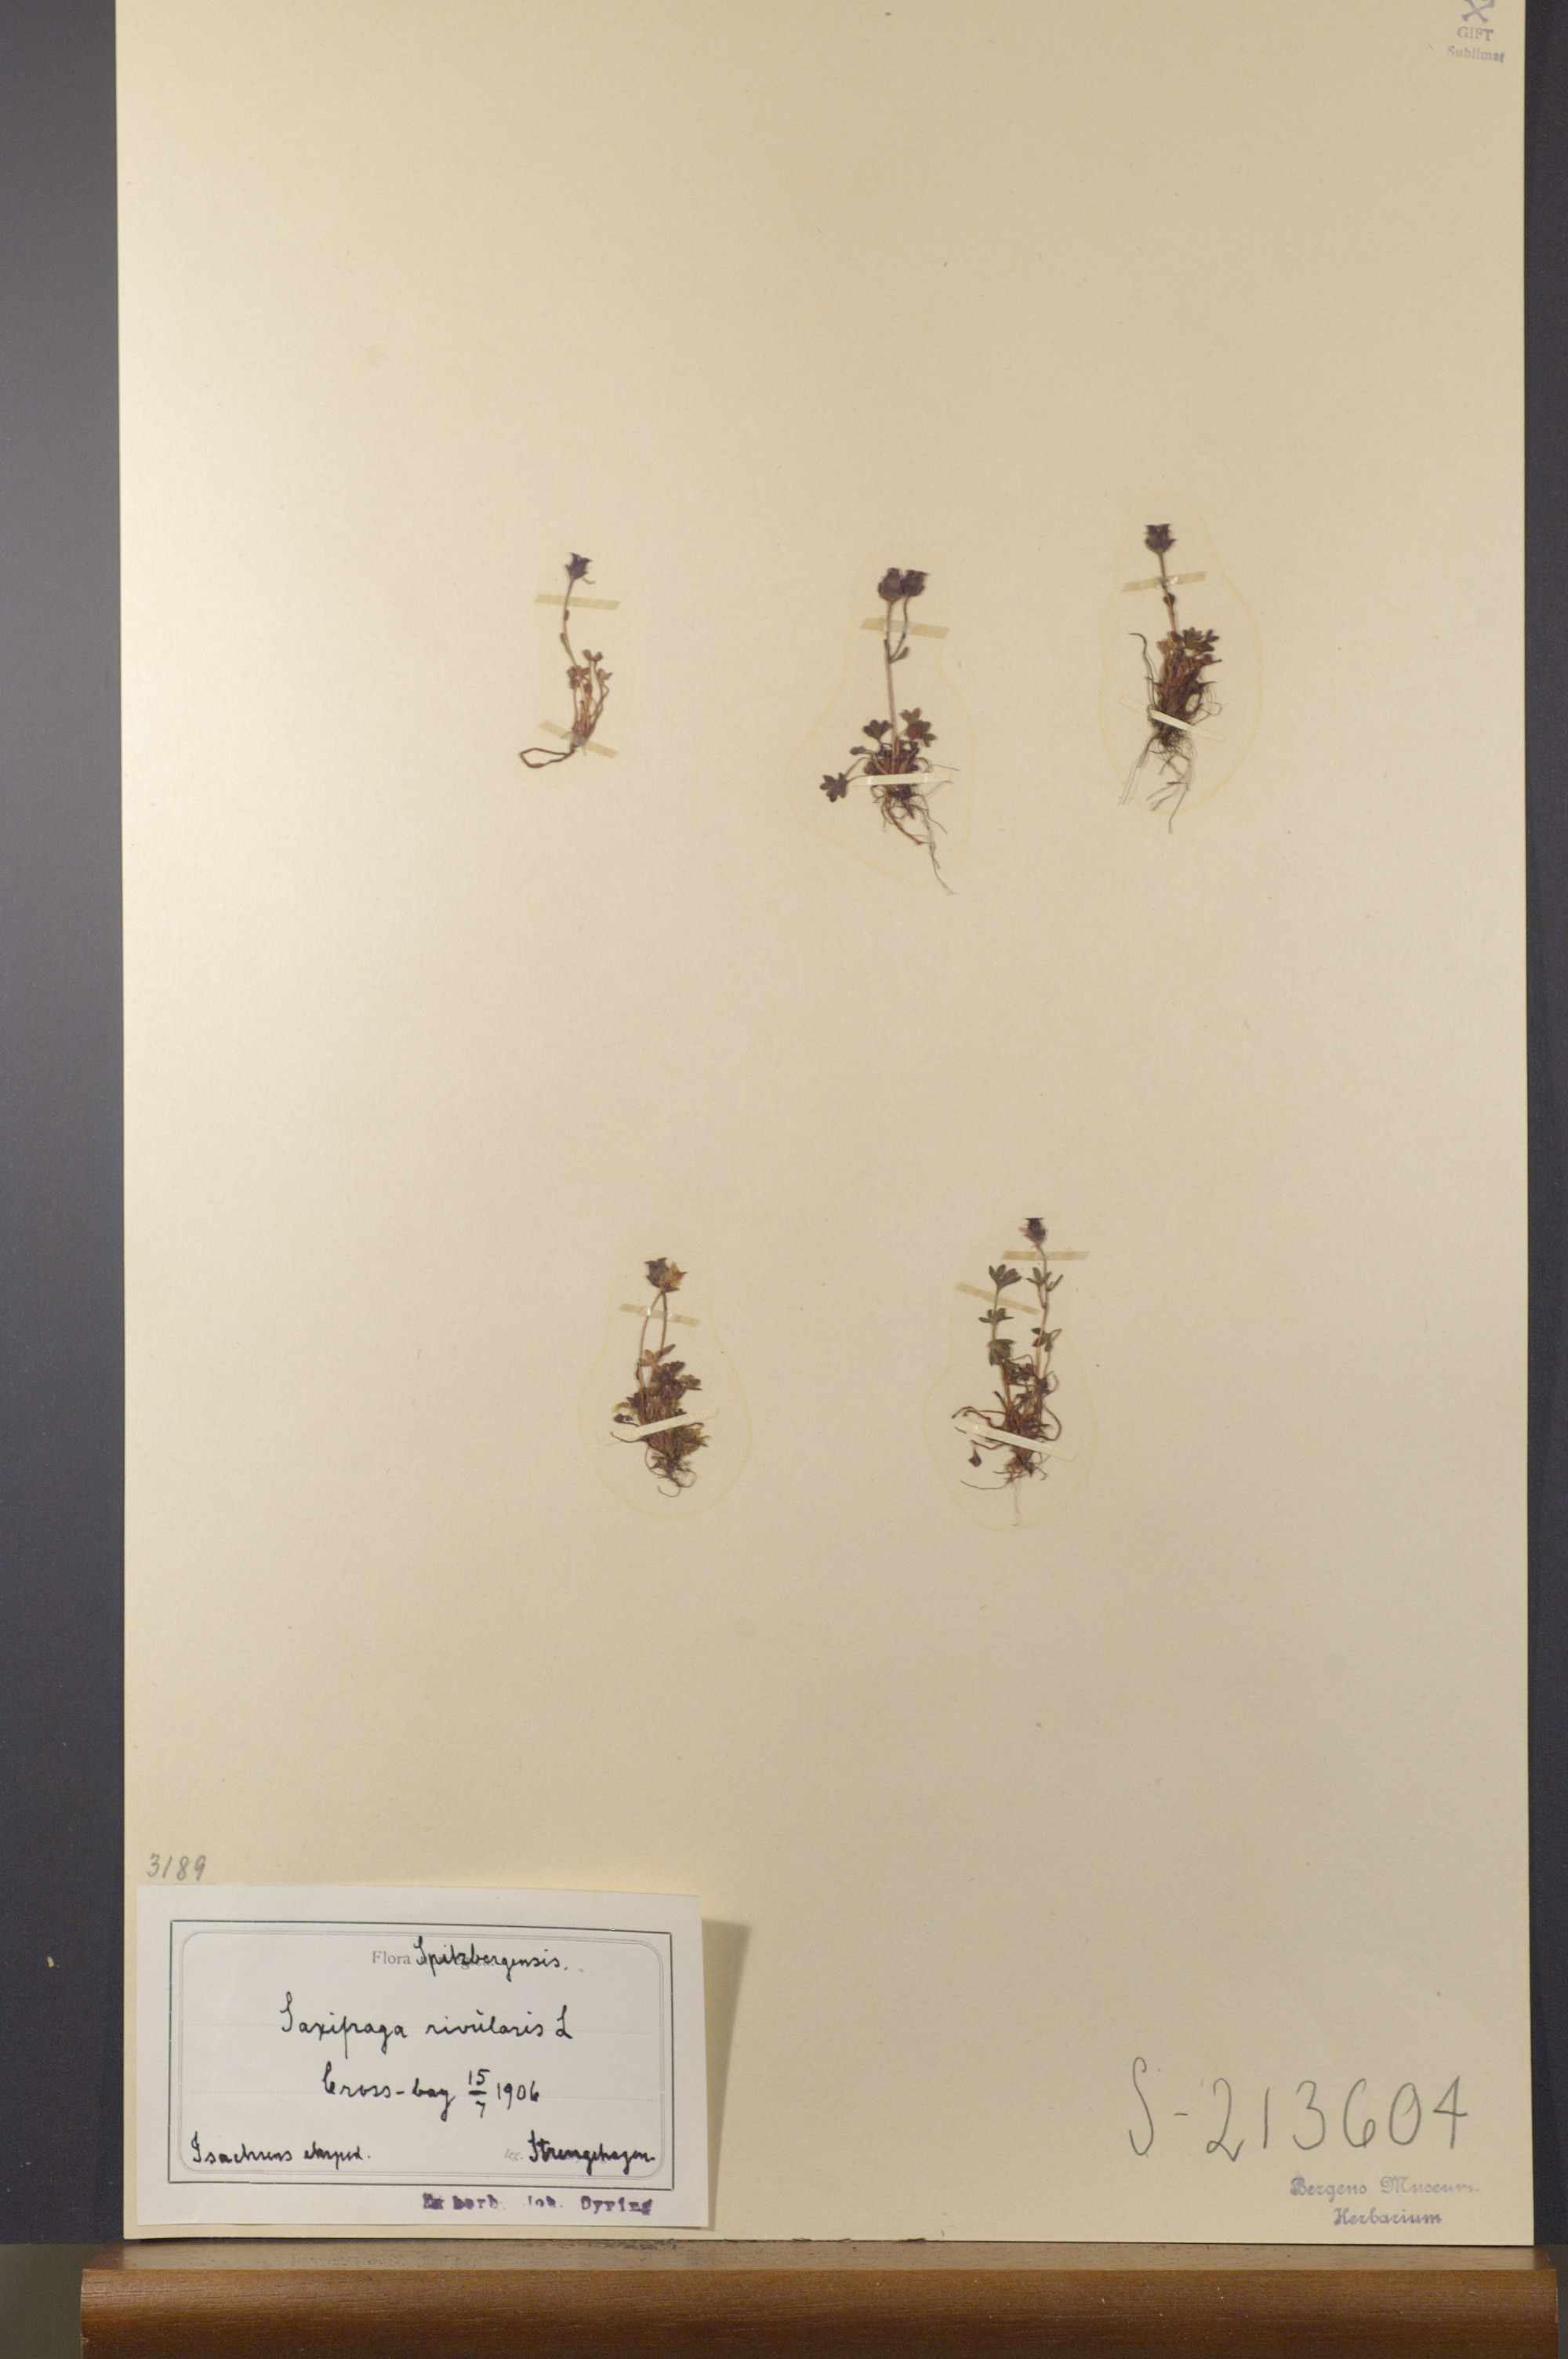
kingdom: Plantae
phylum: Tracheophyta
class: Magnoliopsida
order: Saxifragales
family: Saxifragaceae
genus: Saxifraga
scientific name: Saxifraga rivularis
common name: Highland saxifrage
